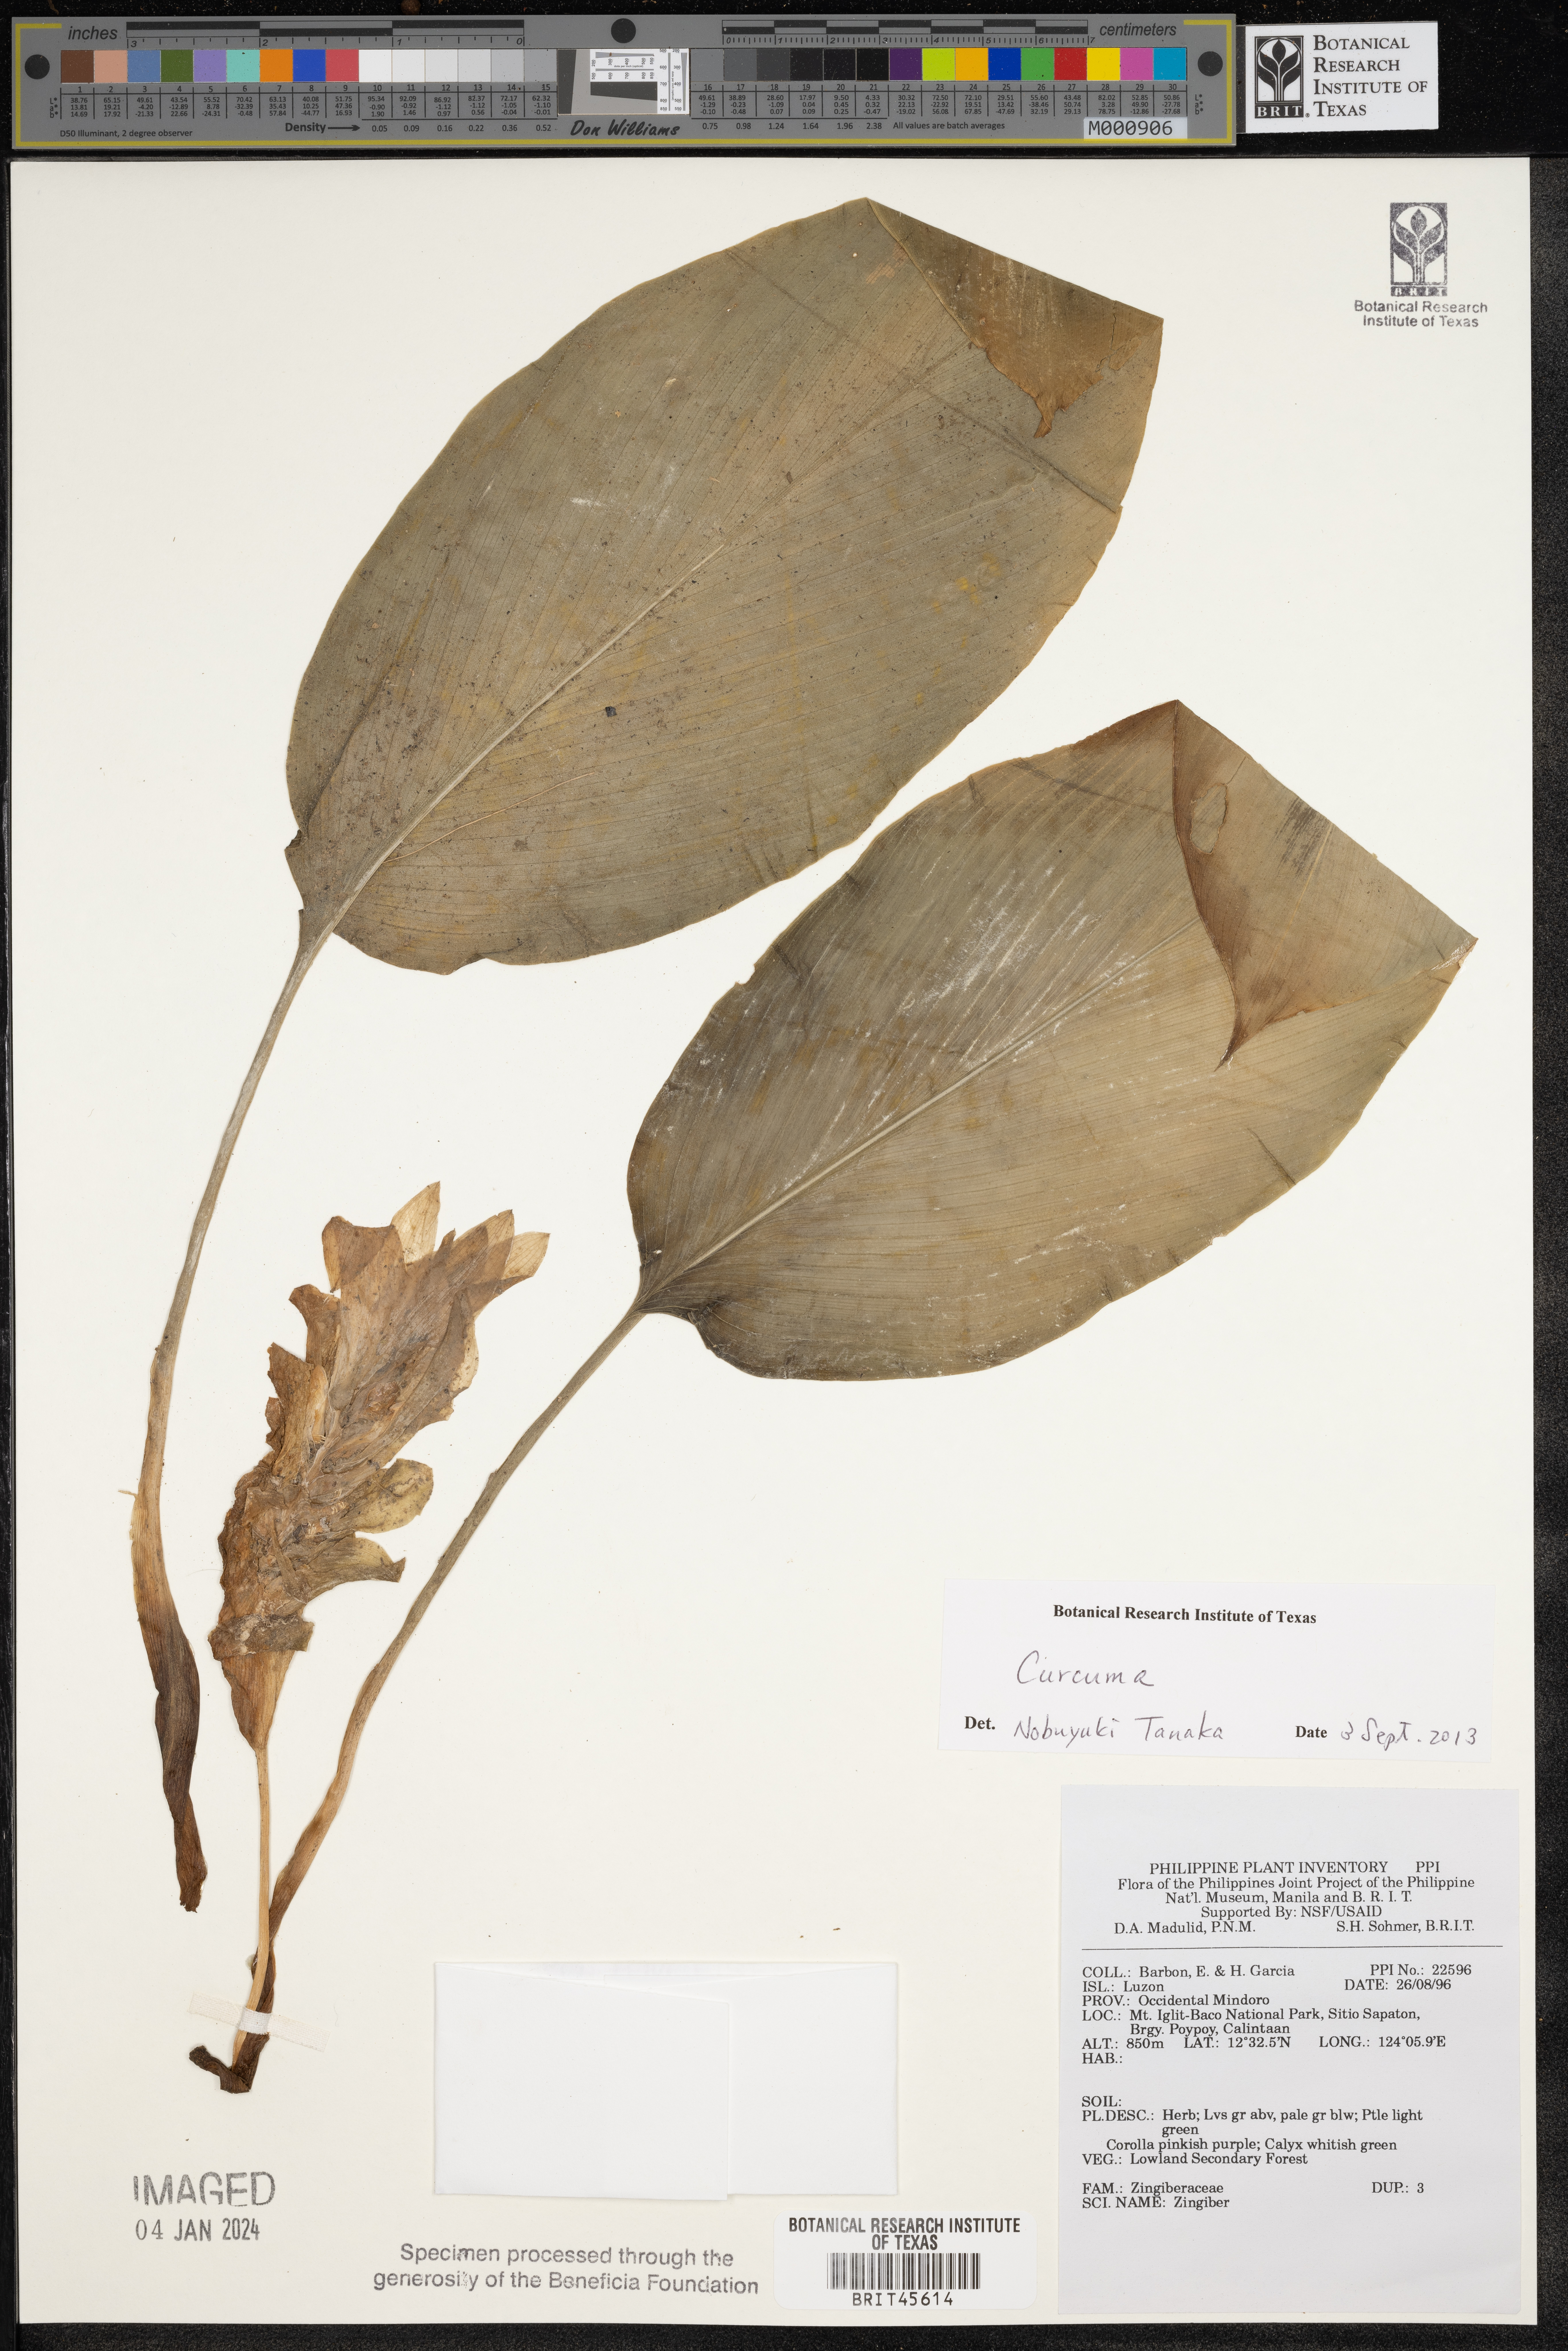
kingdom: Plantae
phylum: Tracheophyta
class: Liliopsida
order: Zingiberales
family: Zingiberaceae
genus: Zingiber
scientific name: Zingiber
